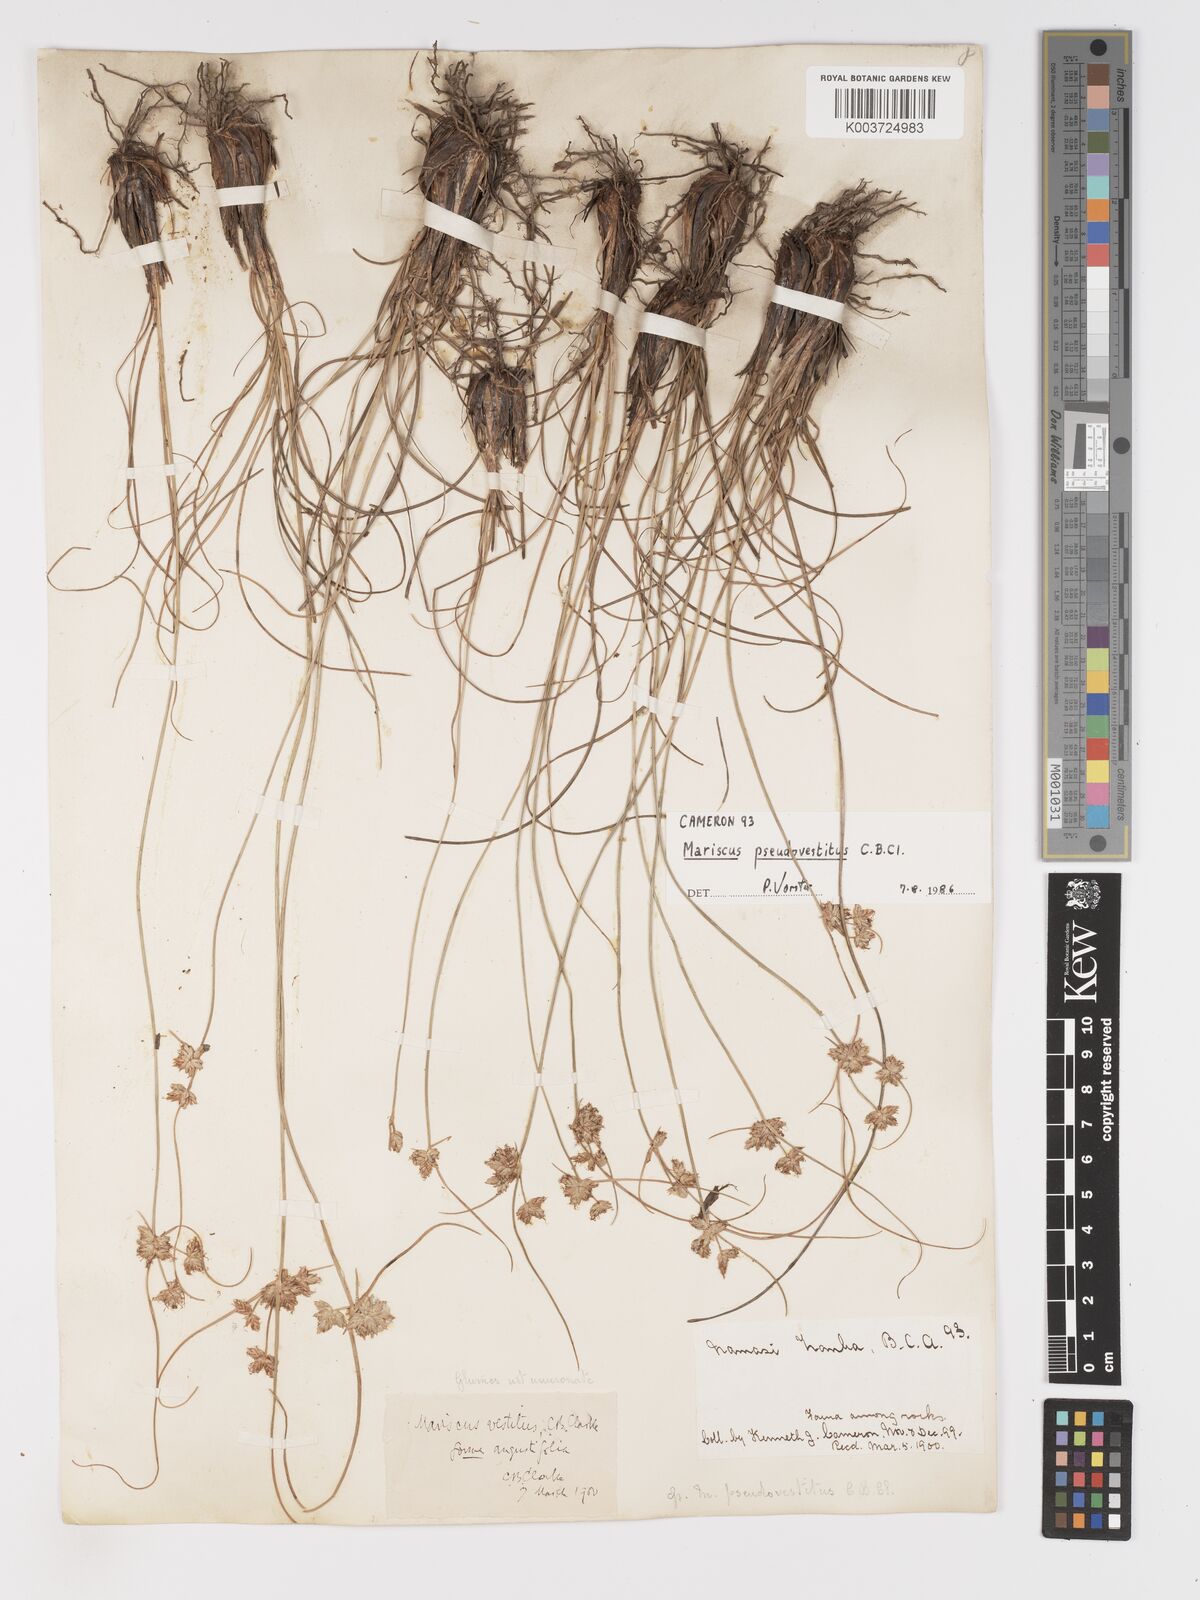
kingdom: Plantae
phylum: Tracheophyta
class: Liliopsida
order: Poales
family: Cyperaceae
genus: Cyperus
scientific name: Cyperus pseudovestitus
